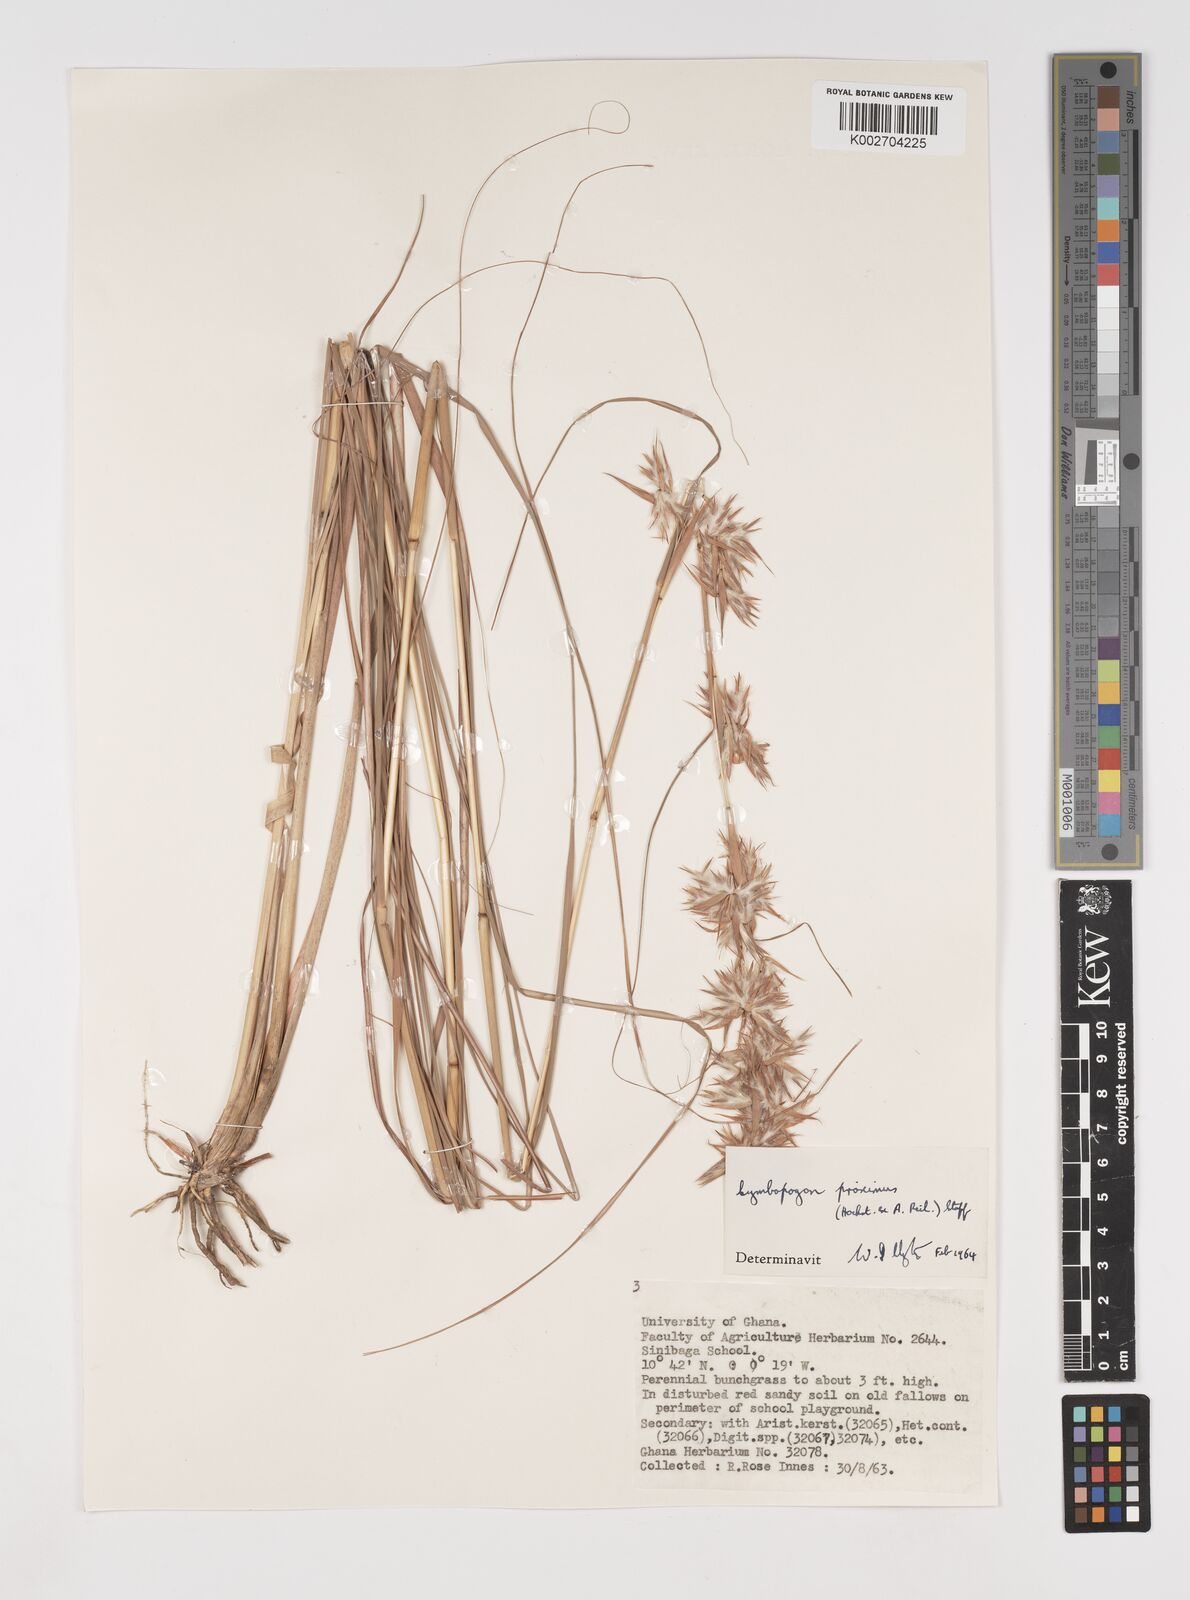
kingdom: Plantae
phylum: Tracheophyta
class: Liliopsida
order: Poales
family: Poaceae
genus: Cymbopogon
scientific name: Cymbopogon schoenanthus
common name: Geranium grass
